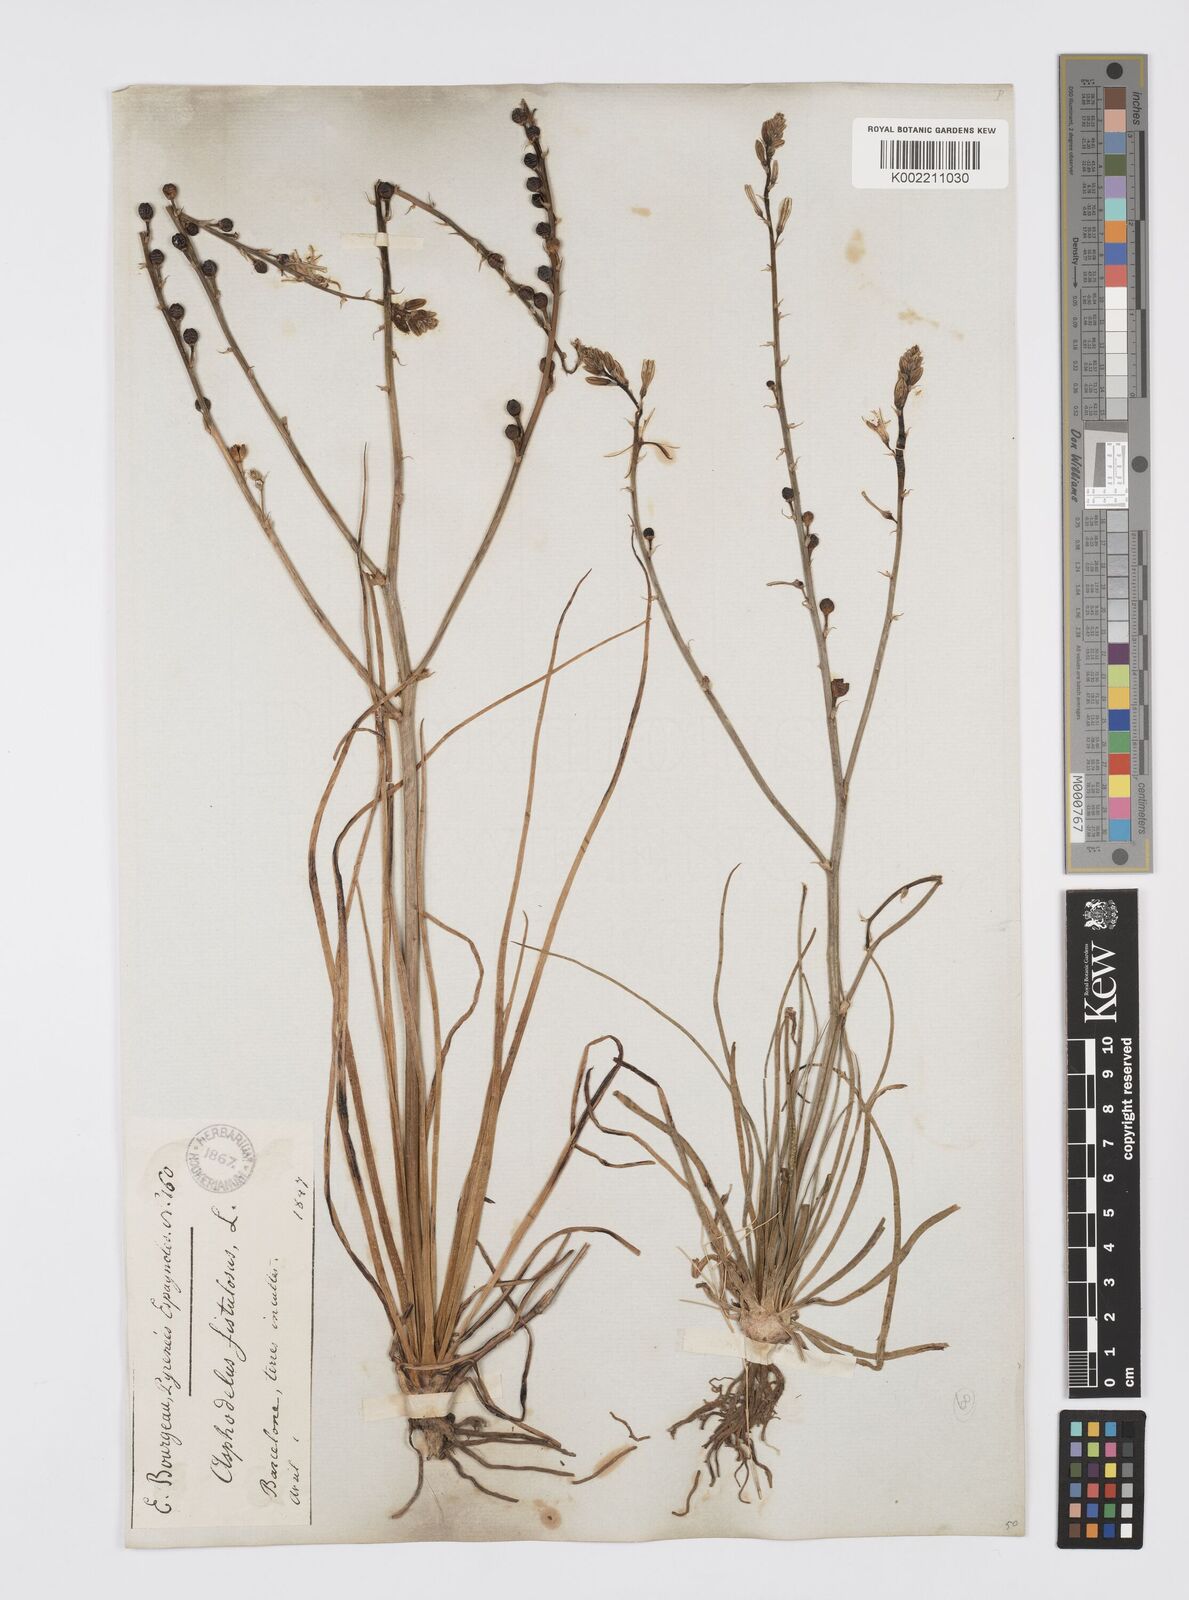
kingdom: Plantae
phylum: Tracheophyta
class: Liliopsida
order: Asparagales
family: Asphodelaceae
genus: Asphodelus
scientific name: Asphodelus fistulosus
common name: Onionweed
